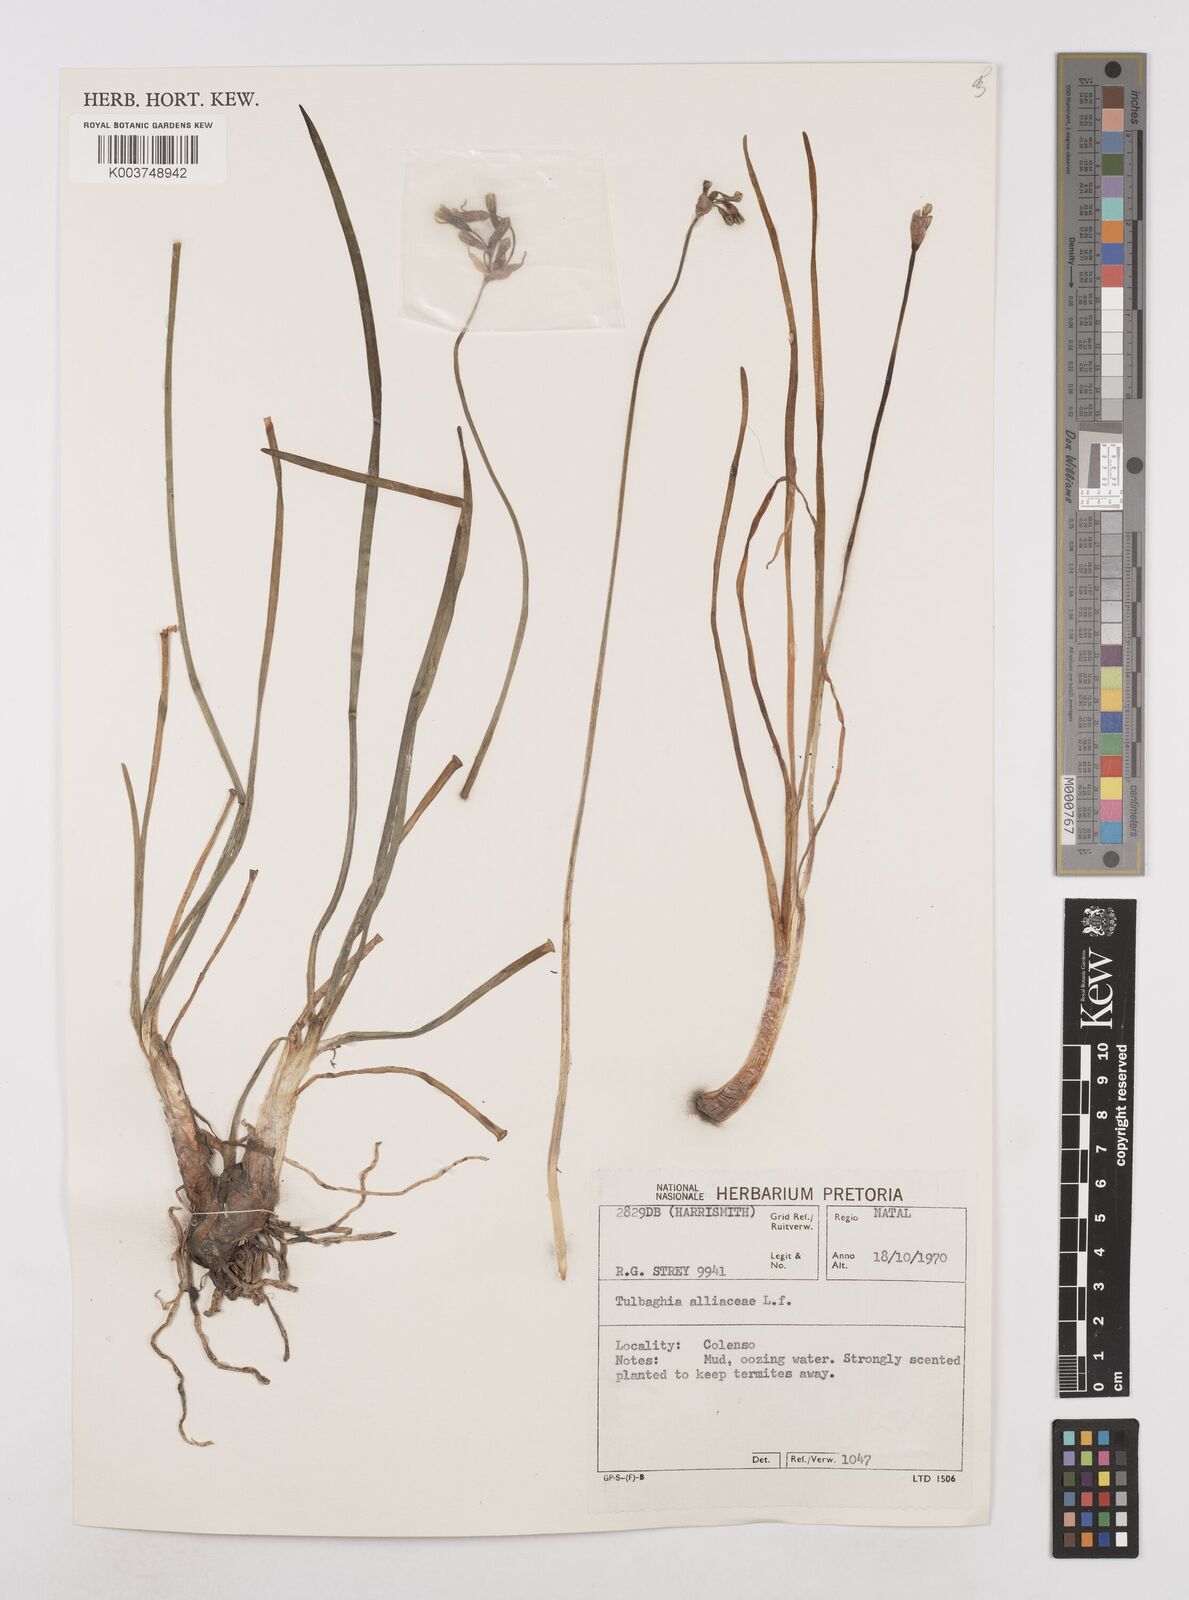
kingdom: Plantae
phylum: Tracheophyta
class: Liliopsida
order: Asparagales
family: Amaryllidaceae
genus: Tulbaghia
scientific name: Tulbaghia alliacea
